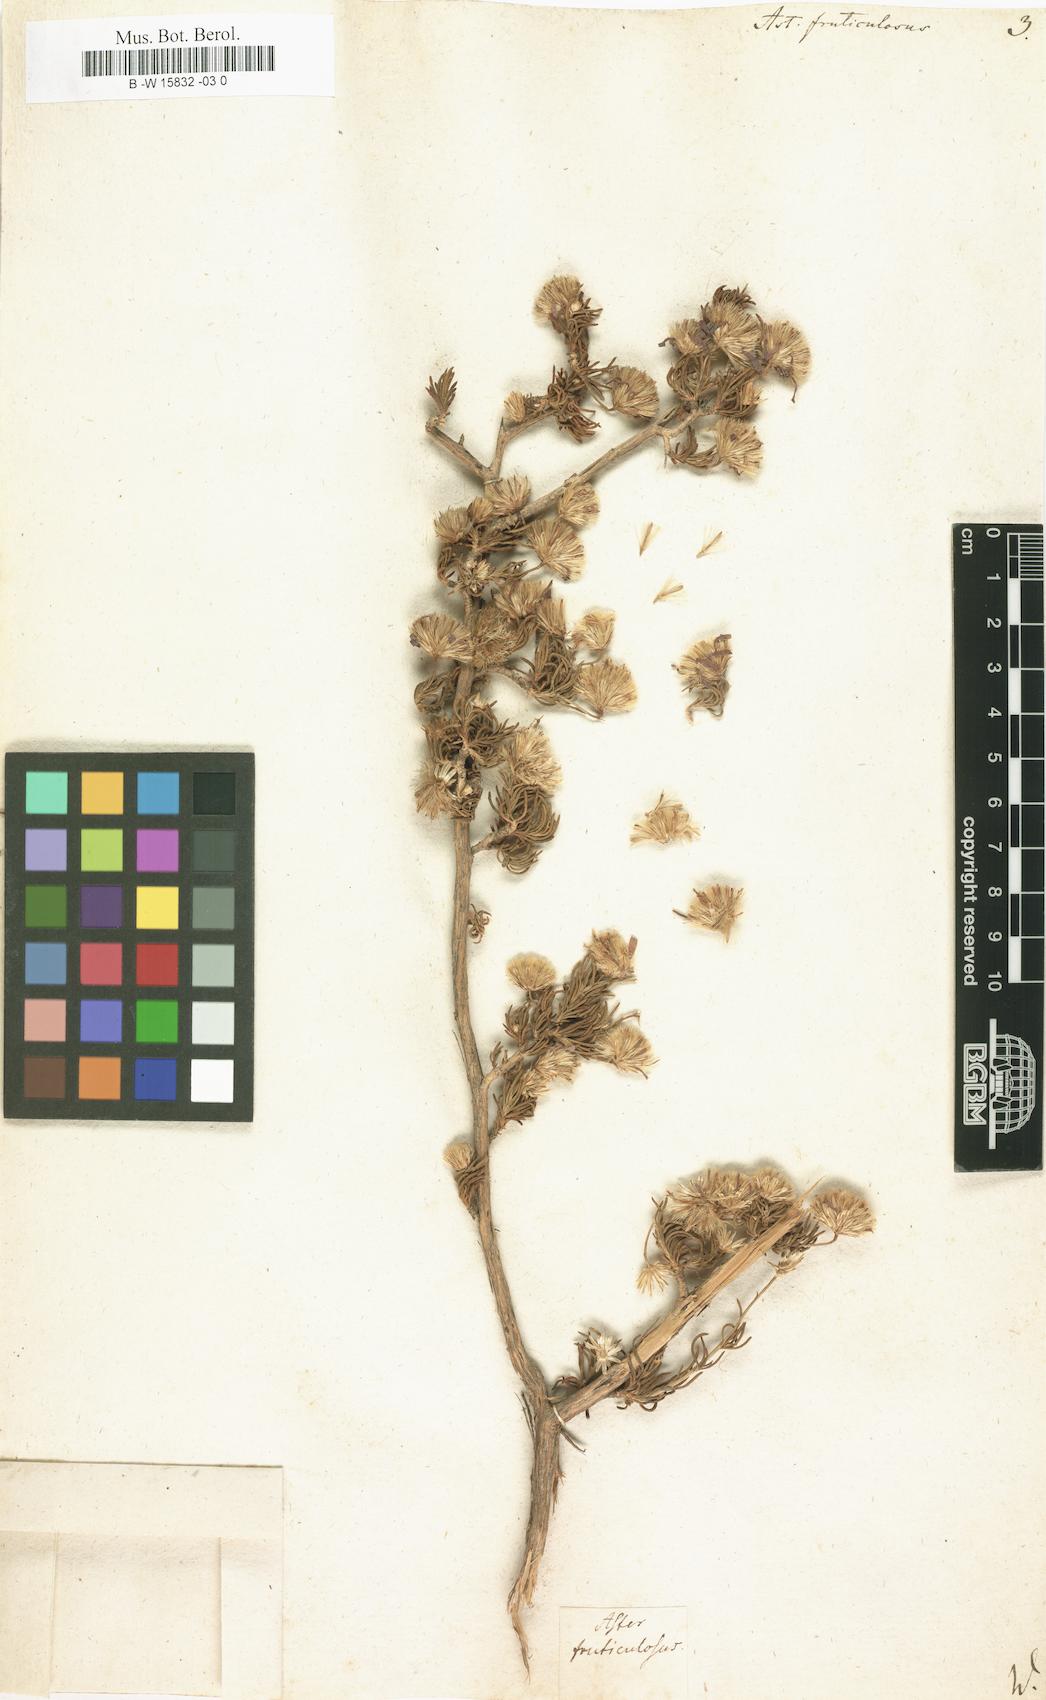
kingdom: Plantae
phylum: Tracheophyta
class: Magnoliopsida
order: Asterales
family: Asteraceae
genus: Aster
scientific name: Aster fruticulosus
